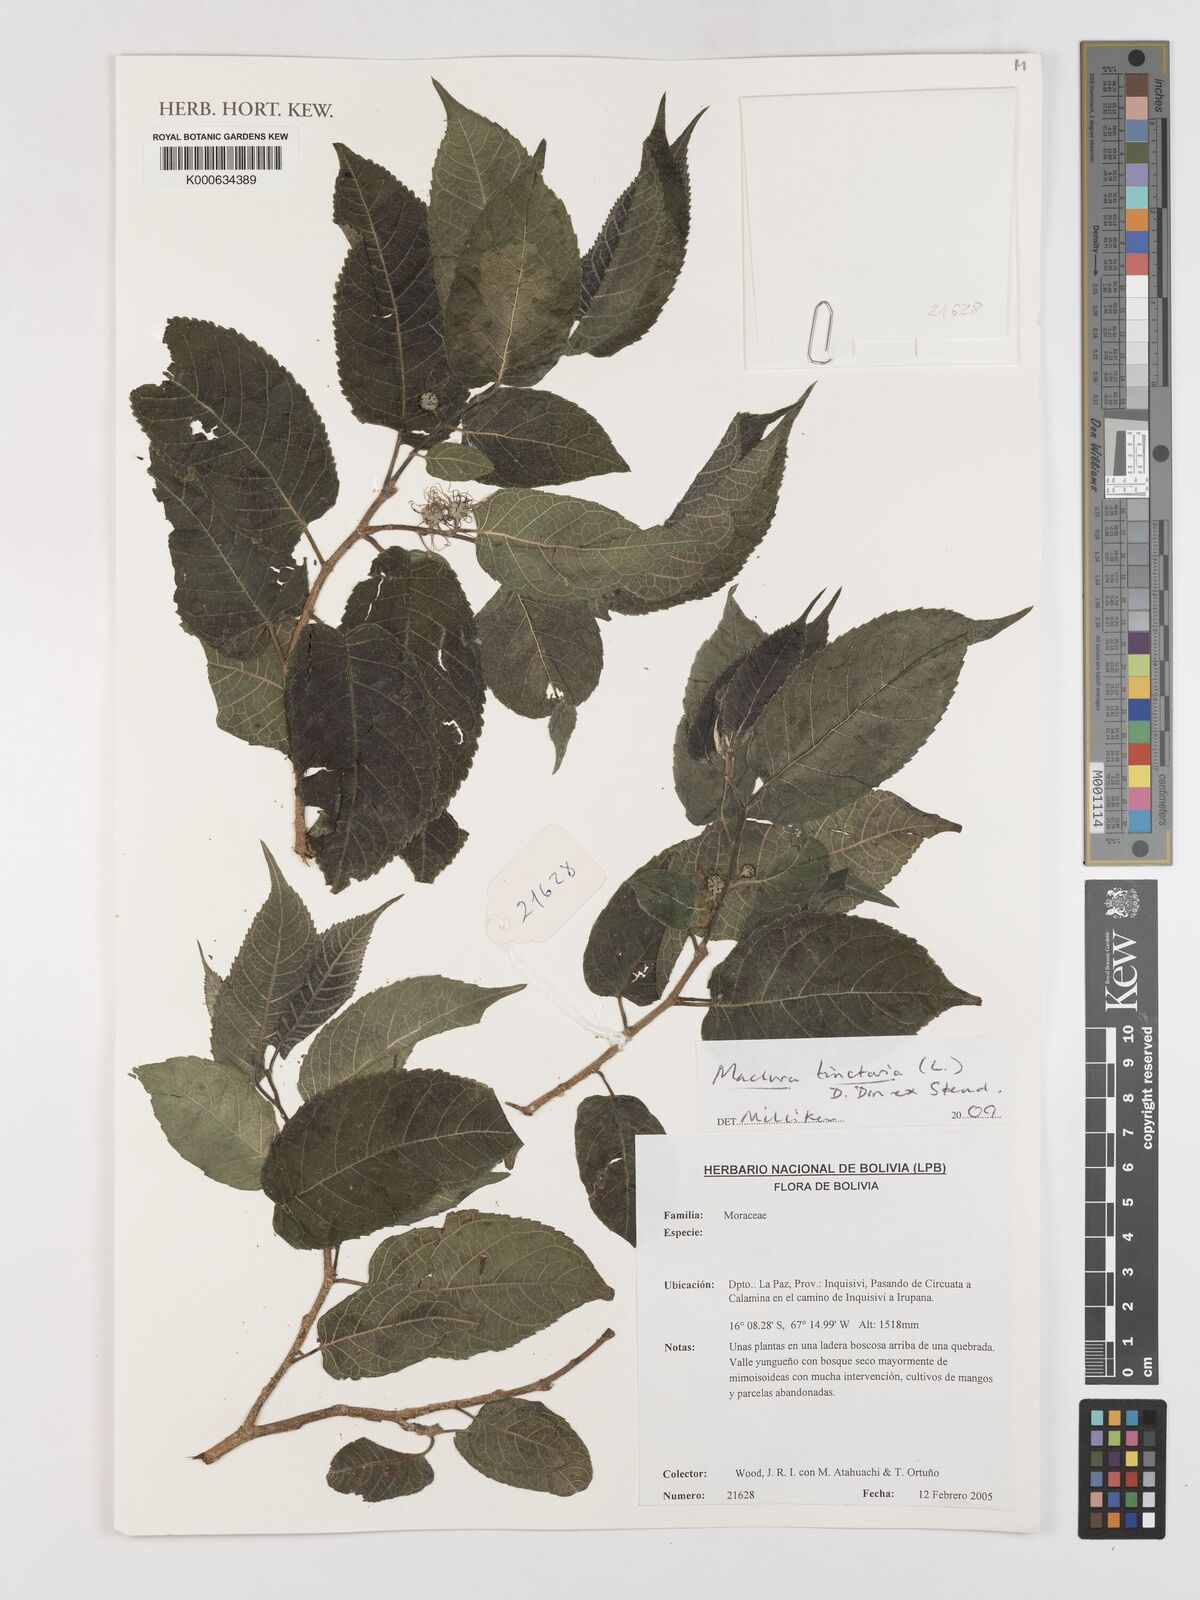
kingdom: Plantae
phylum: Tracheophyta
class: Magnoliopsida
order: Rosales
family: Moraceae
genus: Maclura
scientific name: Maclura tinctoria
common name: Old fustic
